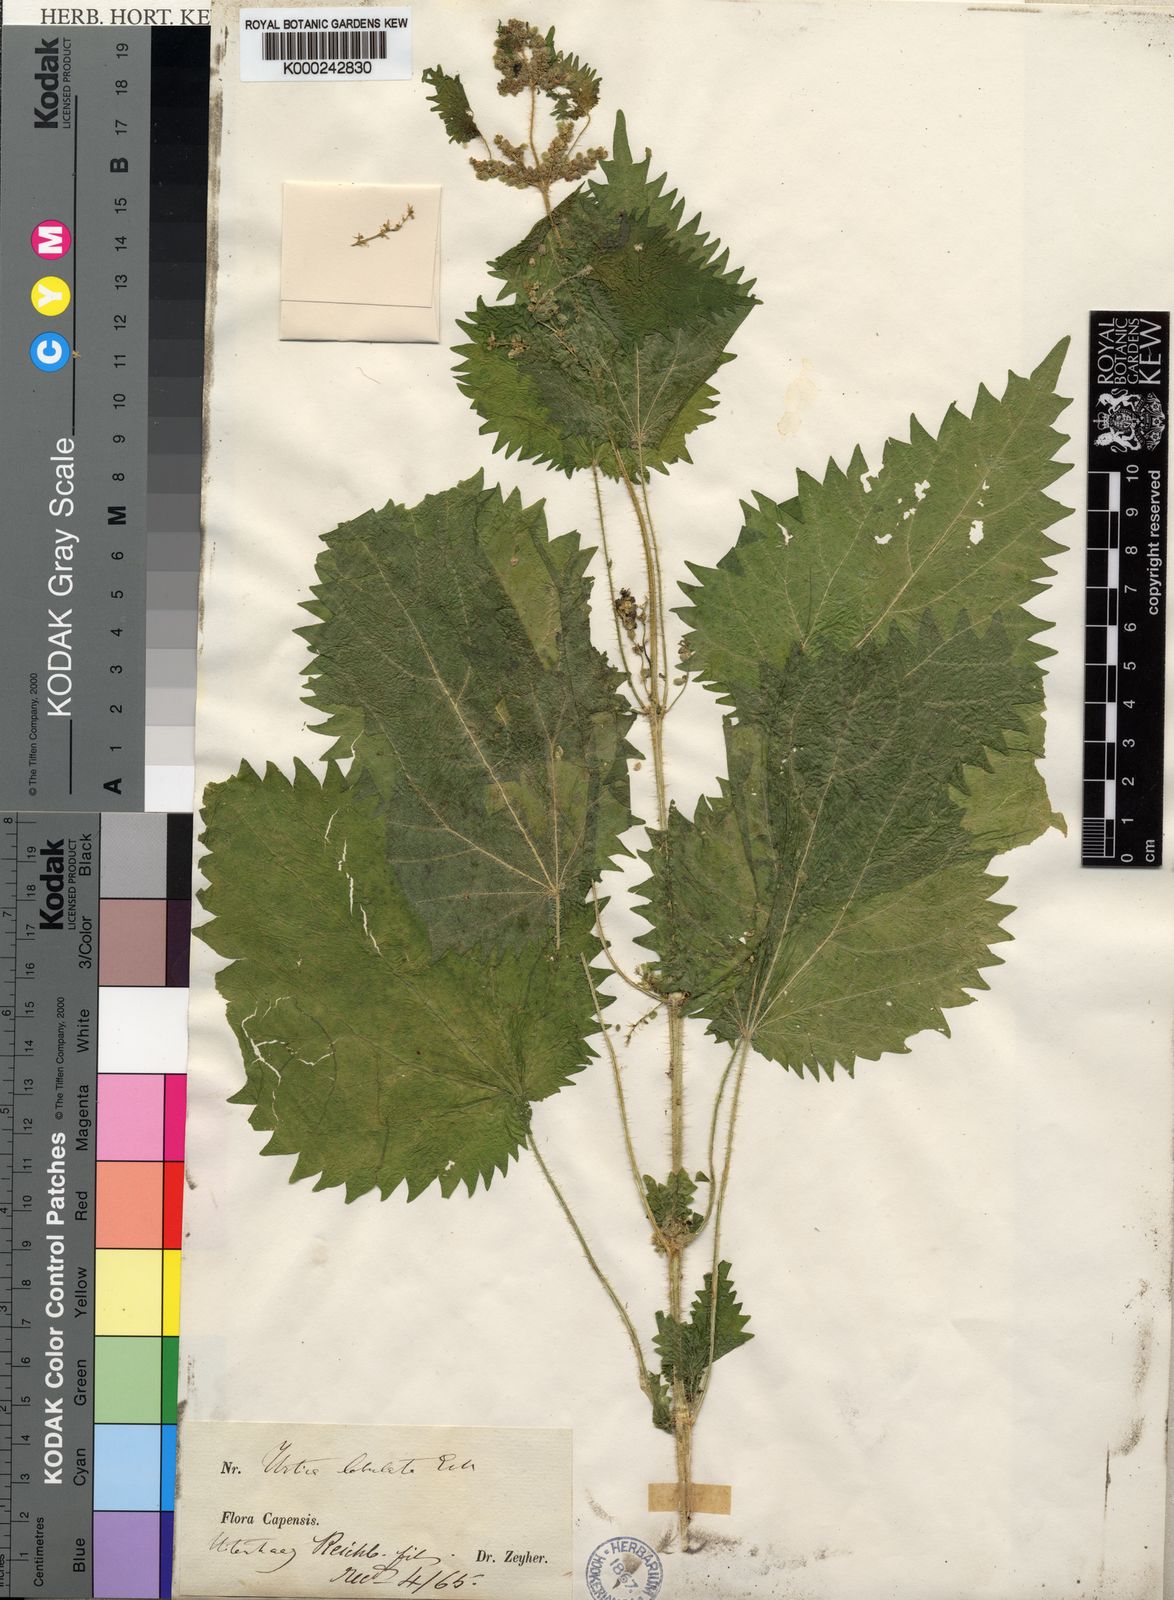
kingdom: Plantae
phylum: Tracheophyta
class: Magnoliopsida
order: Rosales
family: Urticaceae
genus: Urtica
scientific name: Urtica lobata
